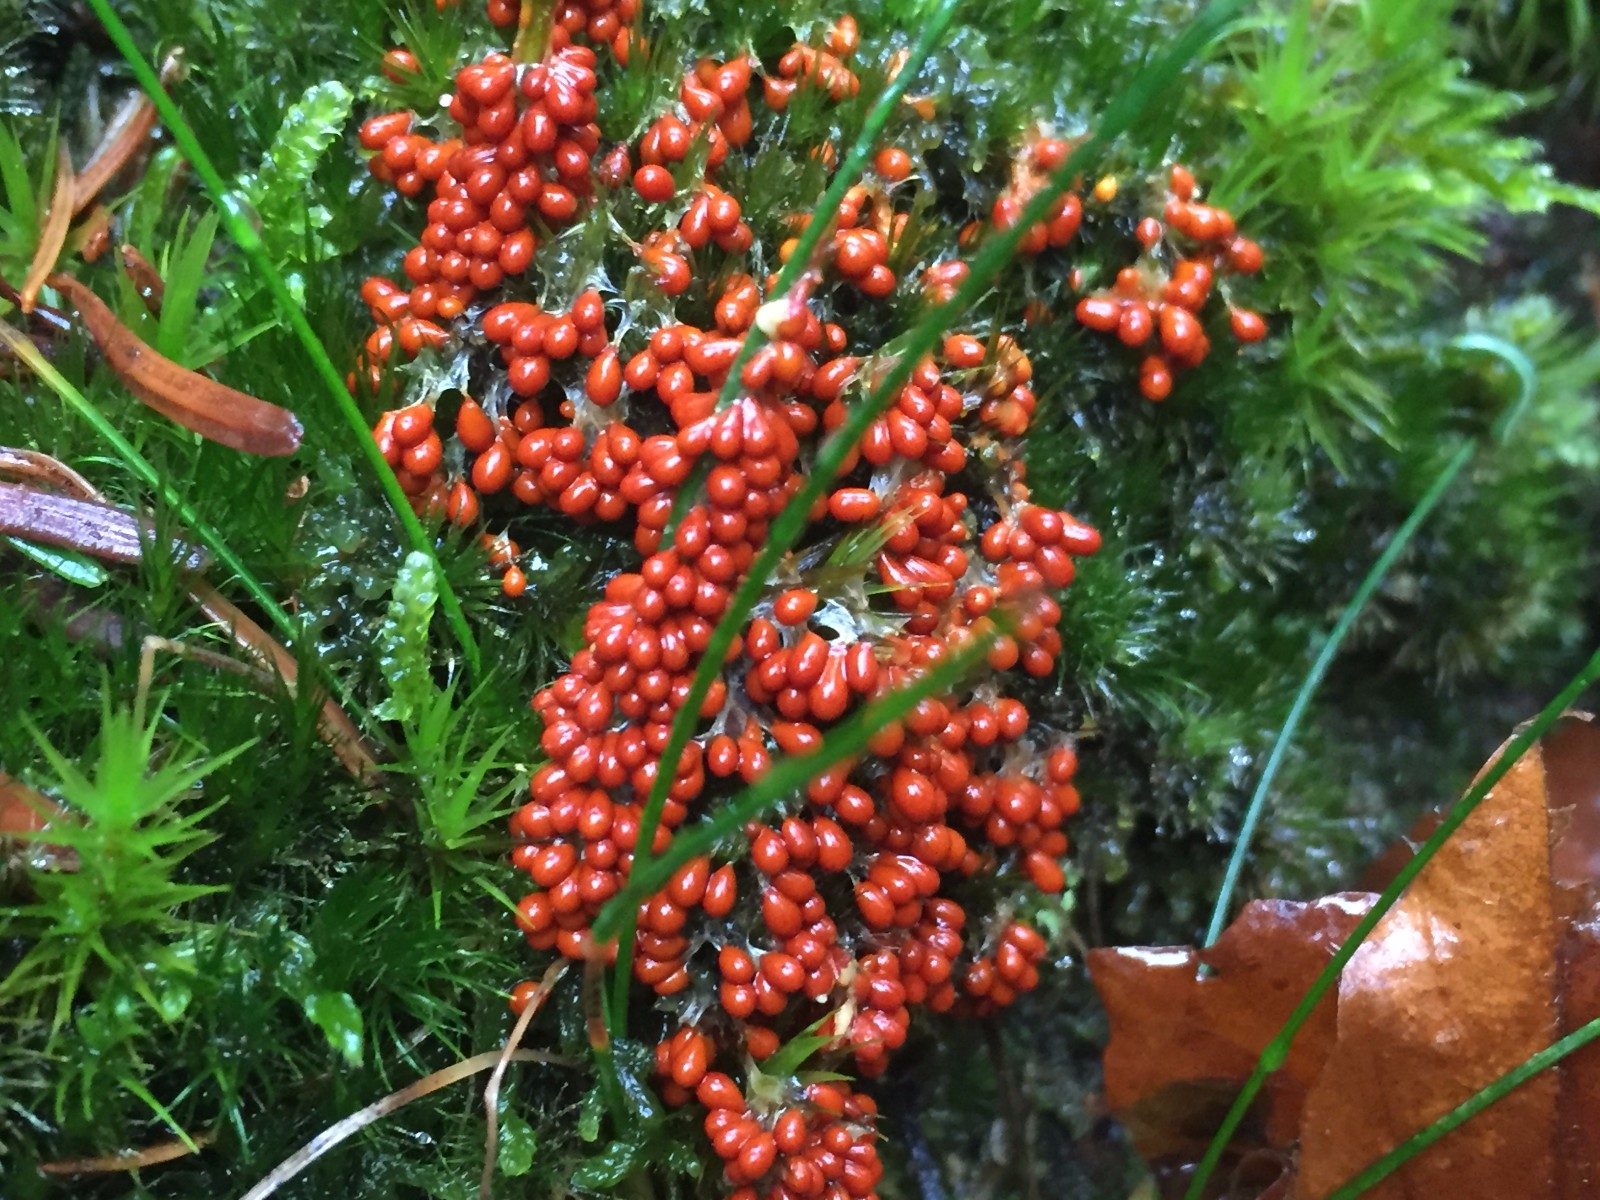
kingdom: Protozoa
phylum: Mycetozoa
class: Myxomycetes
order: Physarales
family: Physaraceae
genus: Leocarpus
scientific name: Leocarpus fragilis
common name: poleret glatfrø
